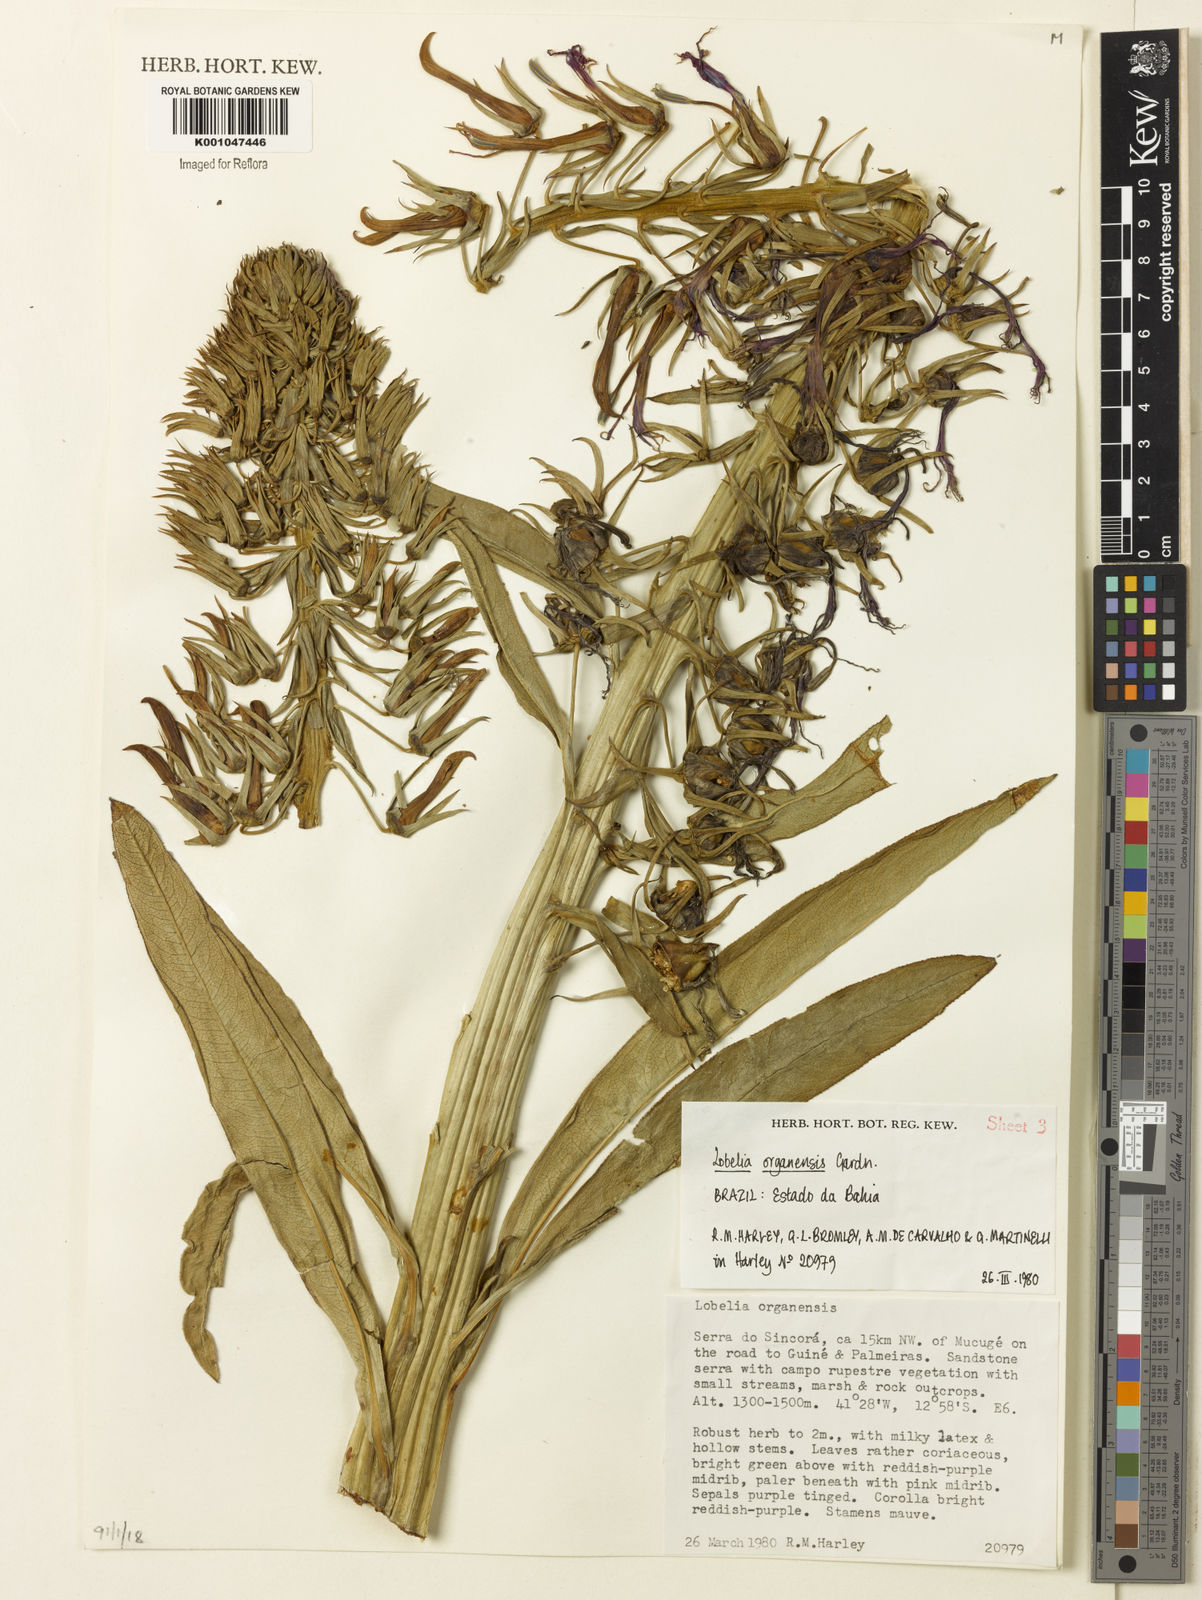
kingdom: Plantae
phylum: Tracheophyta
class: Magnoliopsida
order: Asterales
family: Campanulaceae
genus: Lobelia
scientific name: Lobelia organensis
